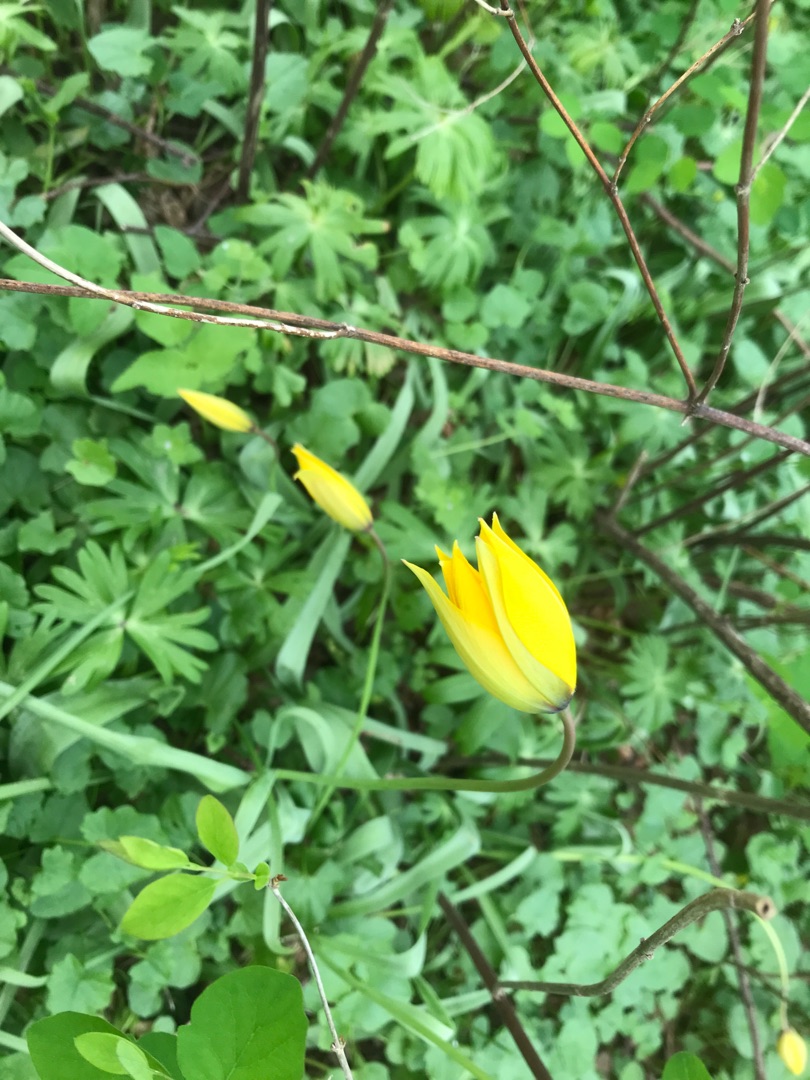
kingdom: Plantae
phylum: Tracheophyta
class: Liliopsida
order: Liliales
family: Liliaceae
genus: Tulipa
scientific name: Tulipa sylvestris
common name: Vild tulipan
